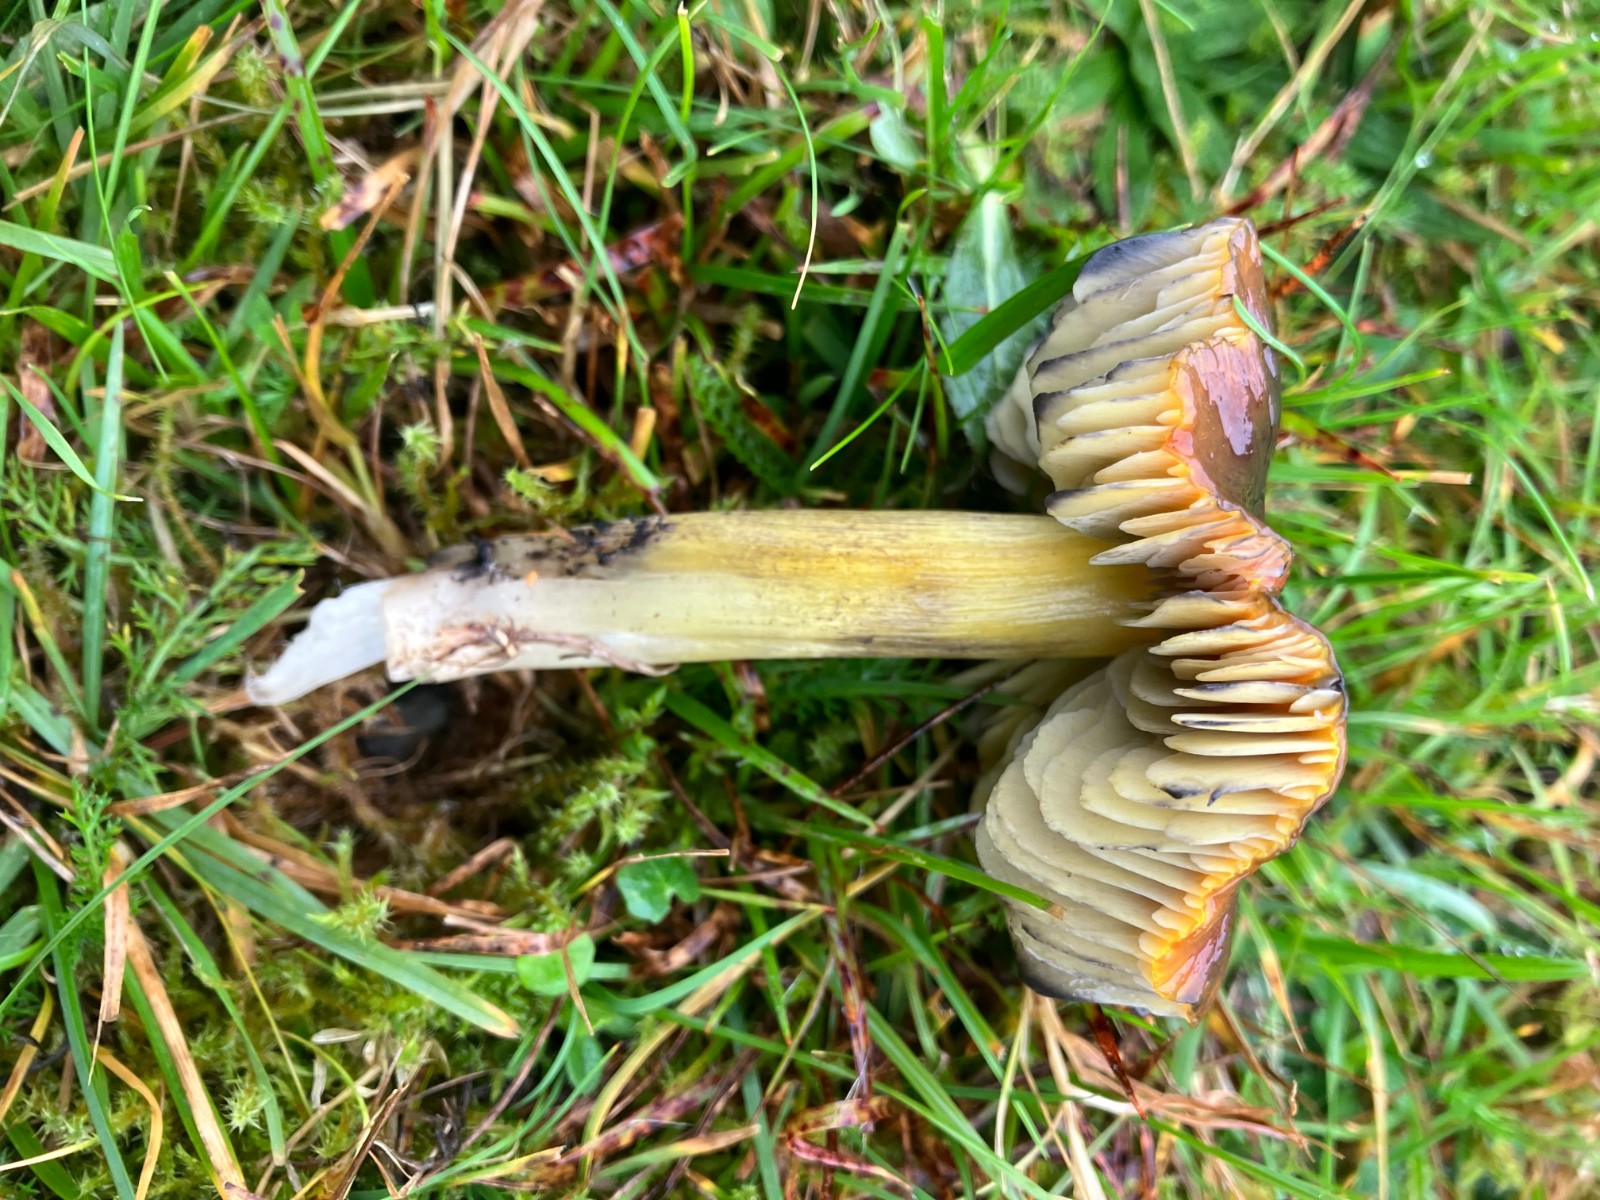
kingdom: Fungi
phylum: Basidiomycota
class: Agaricomycetes
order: Agaricales
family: Hygrophoraceae
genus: Hygrocybe
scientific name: Hygrocybe conica
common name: kegle-vokshat
